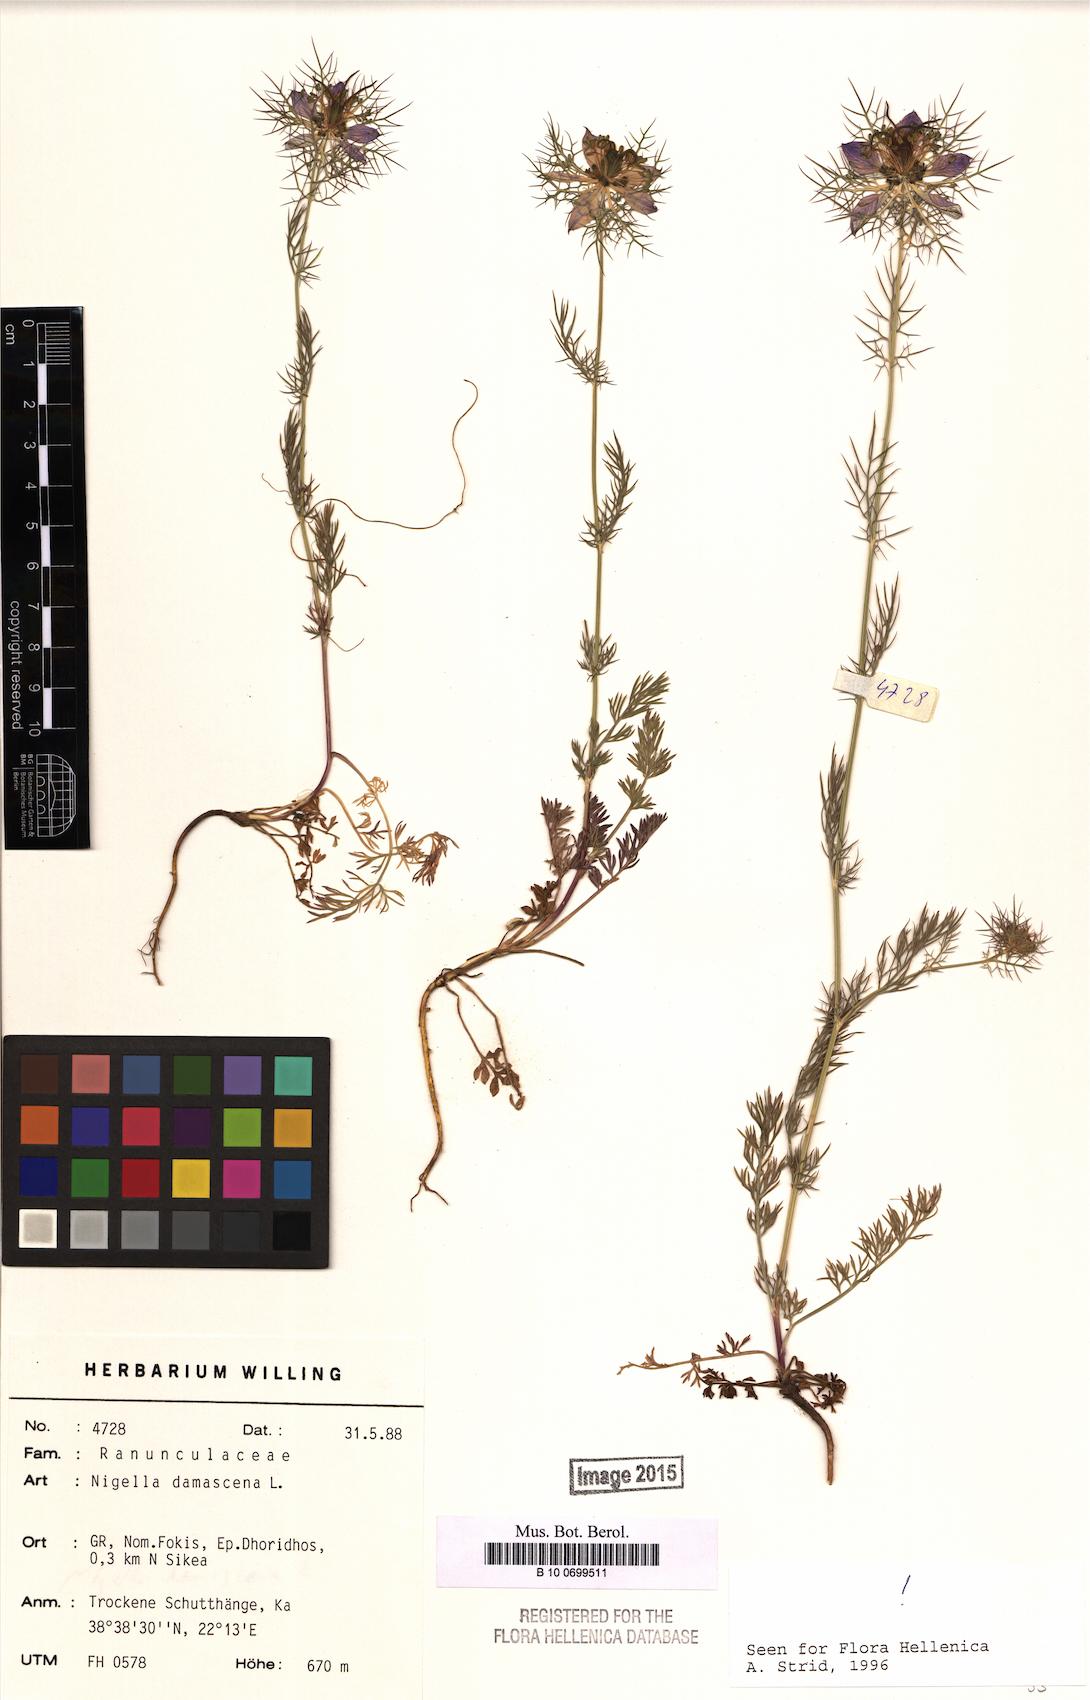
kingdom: Plantae
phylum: Tracheophyta
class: Magnoliopsida
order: Ranunculales
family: Ranunculaceae
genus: Nigella
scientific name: Nigella damascena
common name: Love-in-a-mist
